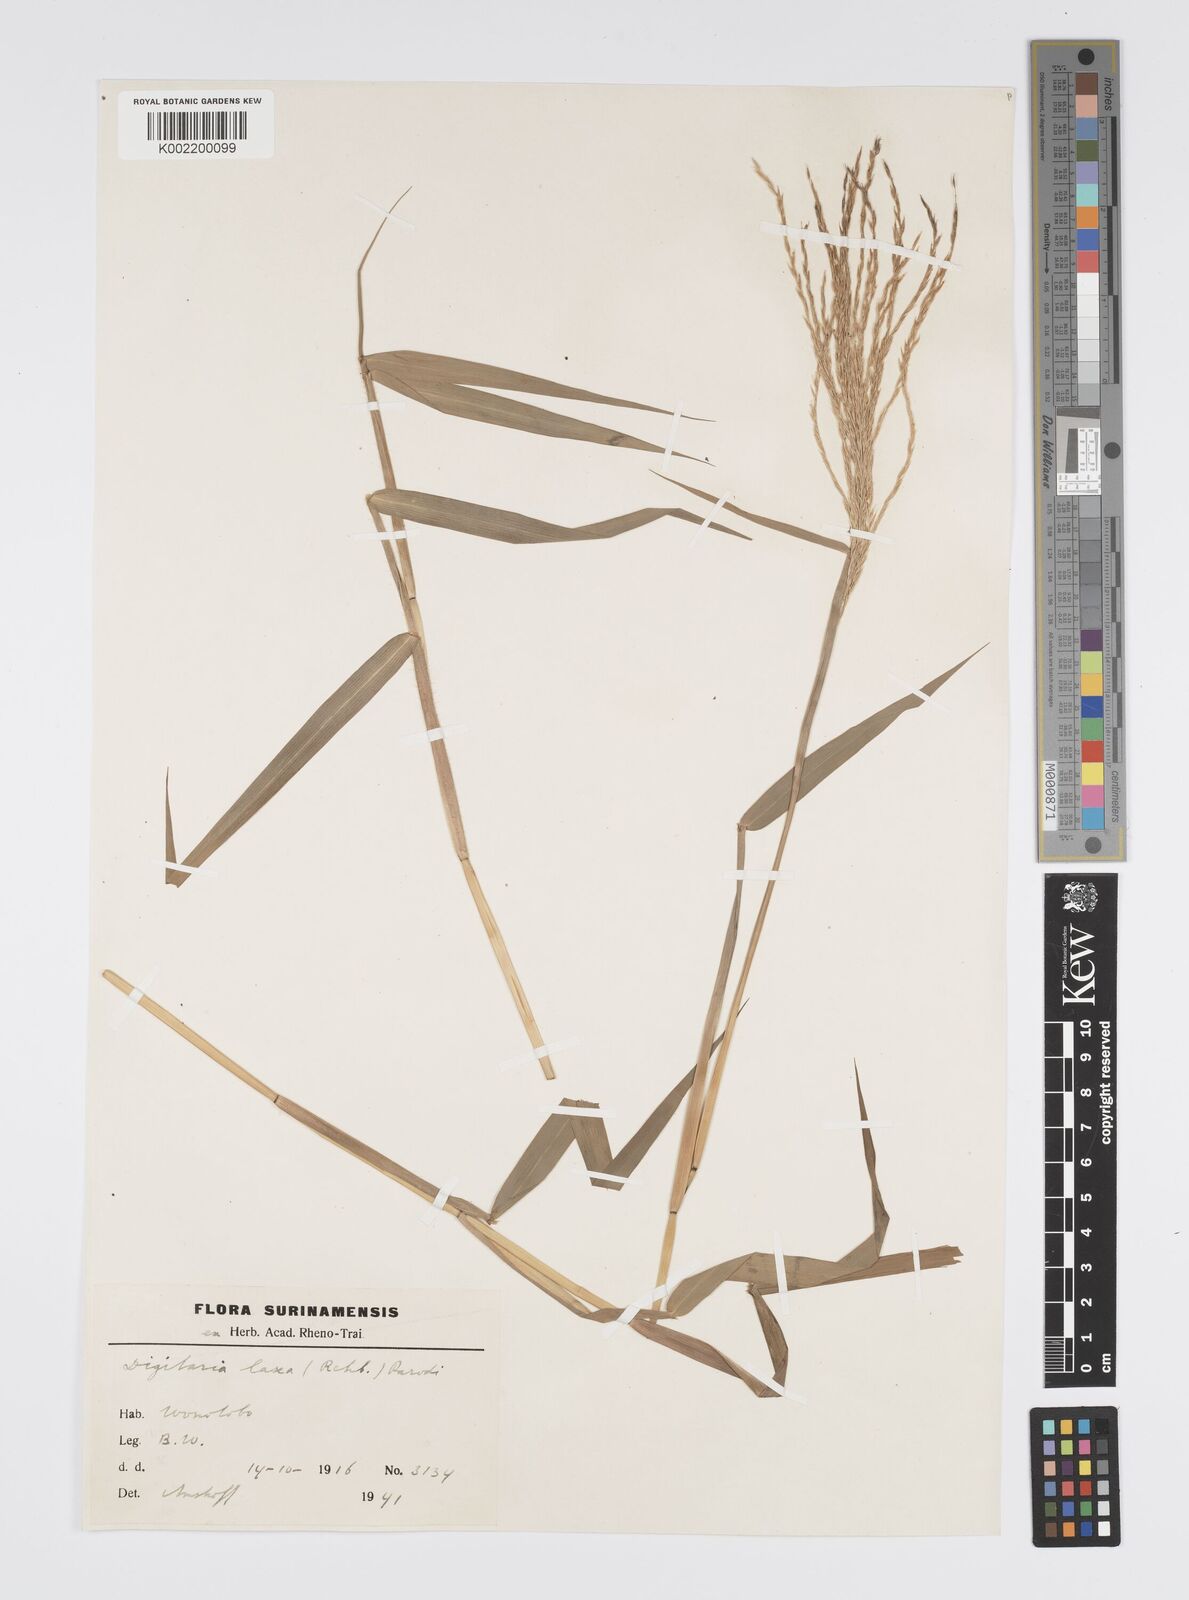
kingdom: Plantae
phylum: Tracheophyta
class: Liliopsida
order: Poales
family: Poaceae
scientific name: Poaceae
